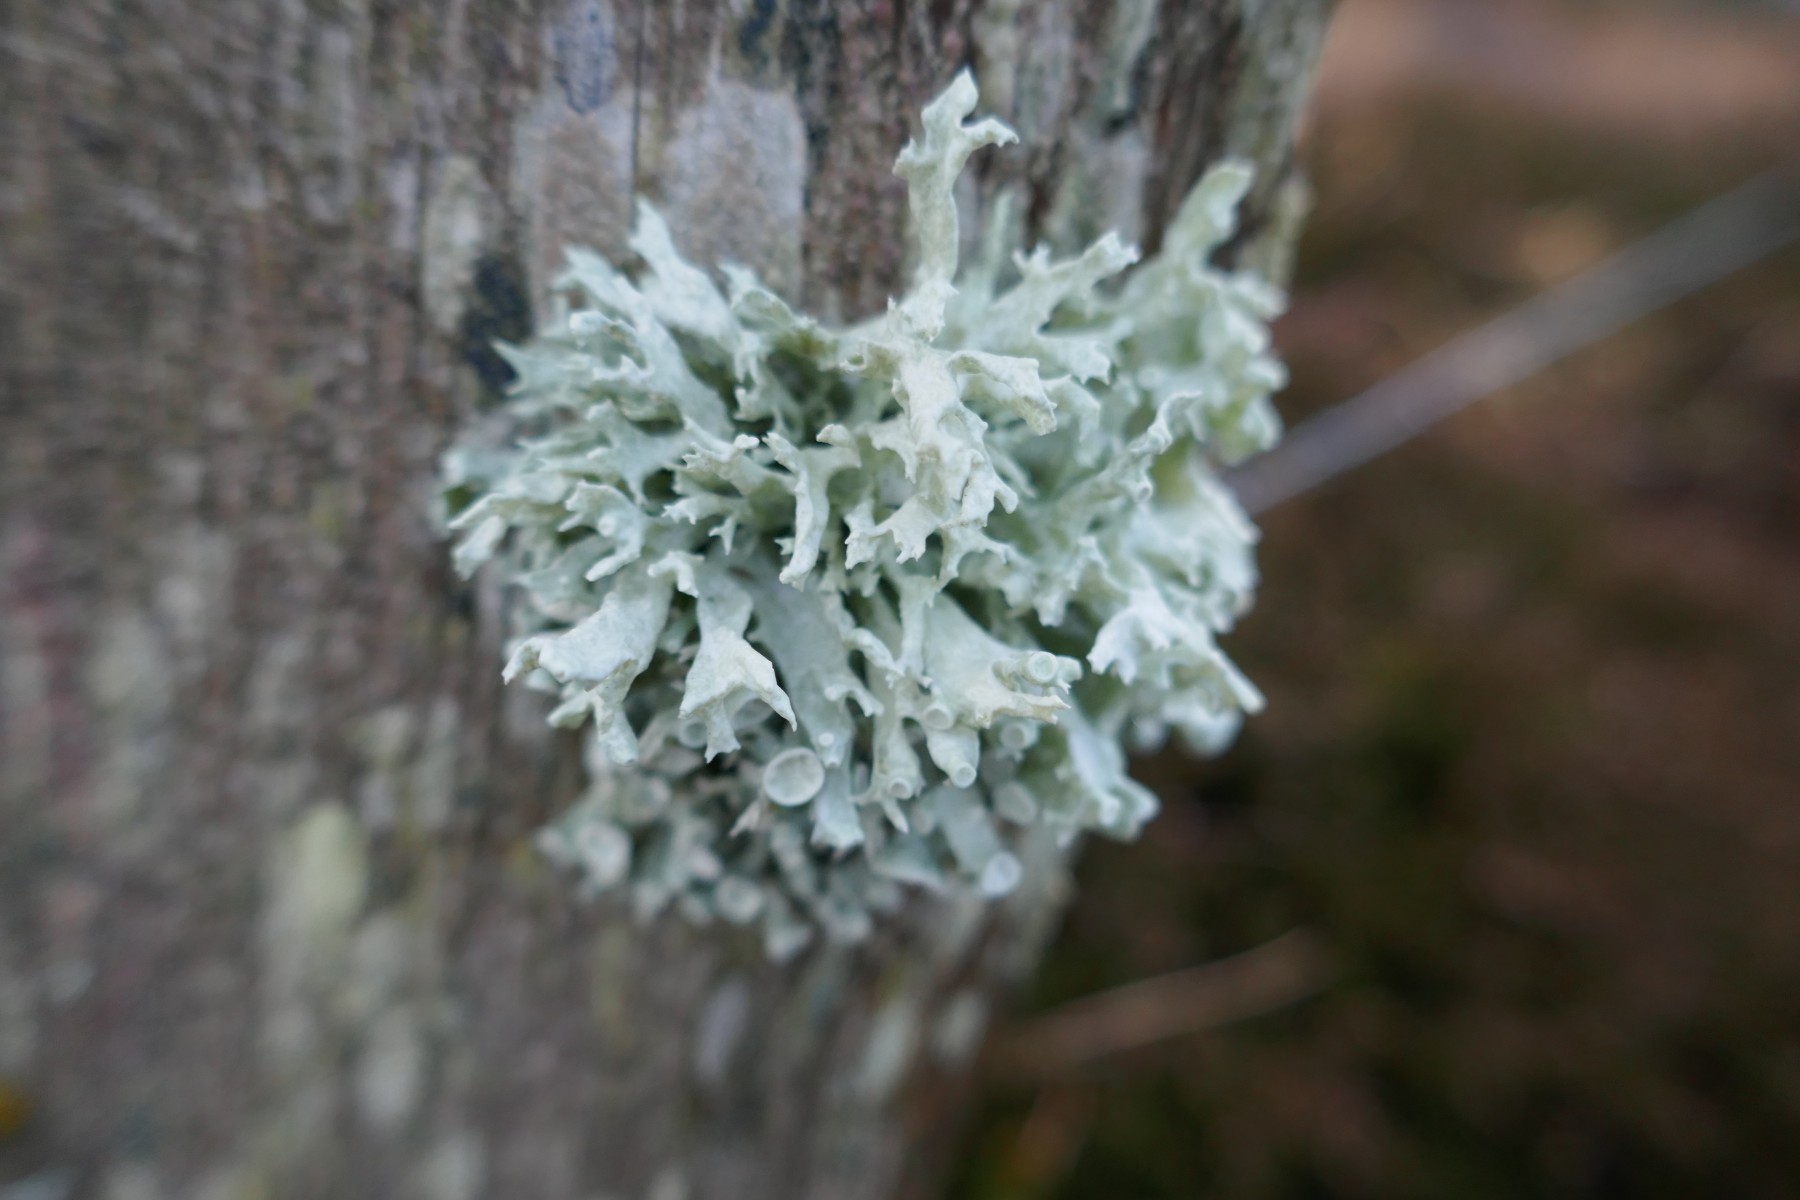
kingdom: Fungi
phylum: Ascomycota
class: Lecanoromycetes
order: Lecanorales
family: Ramalinaceae
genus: Ramalina
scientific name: Ramalina fastigiata
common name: tue-grenlav
